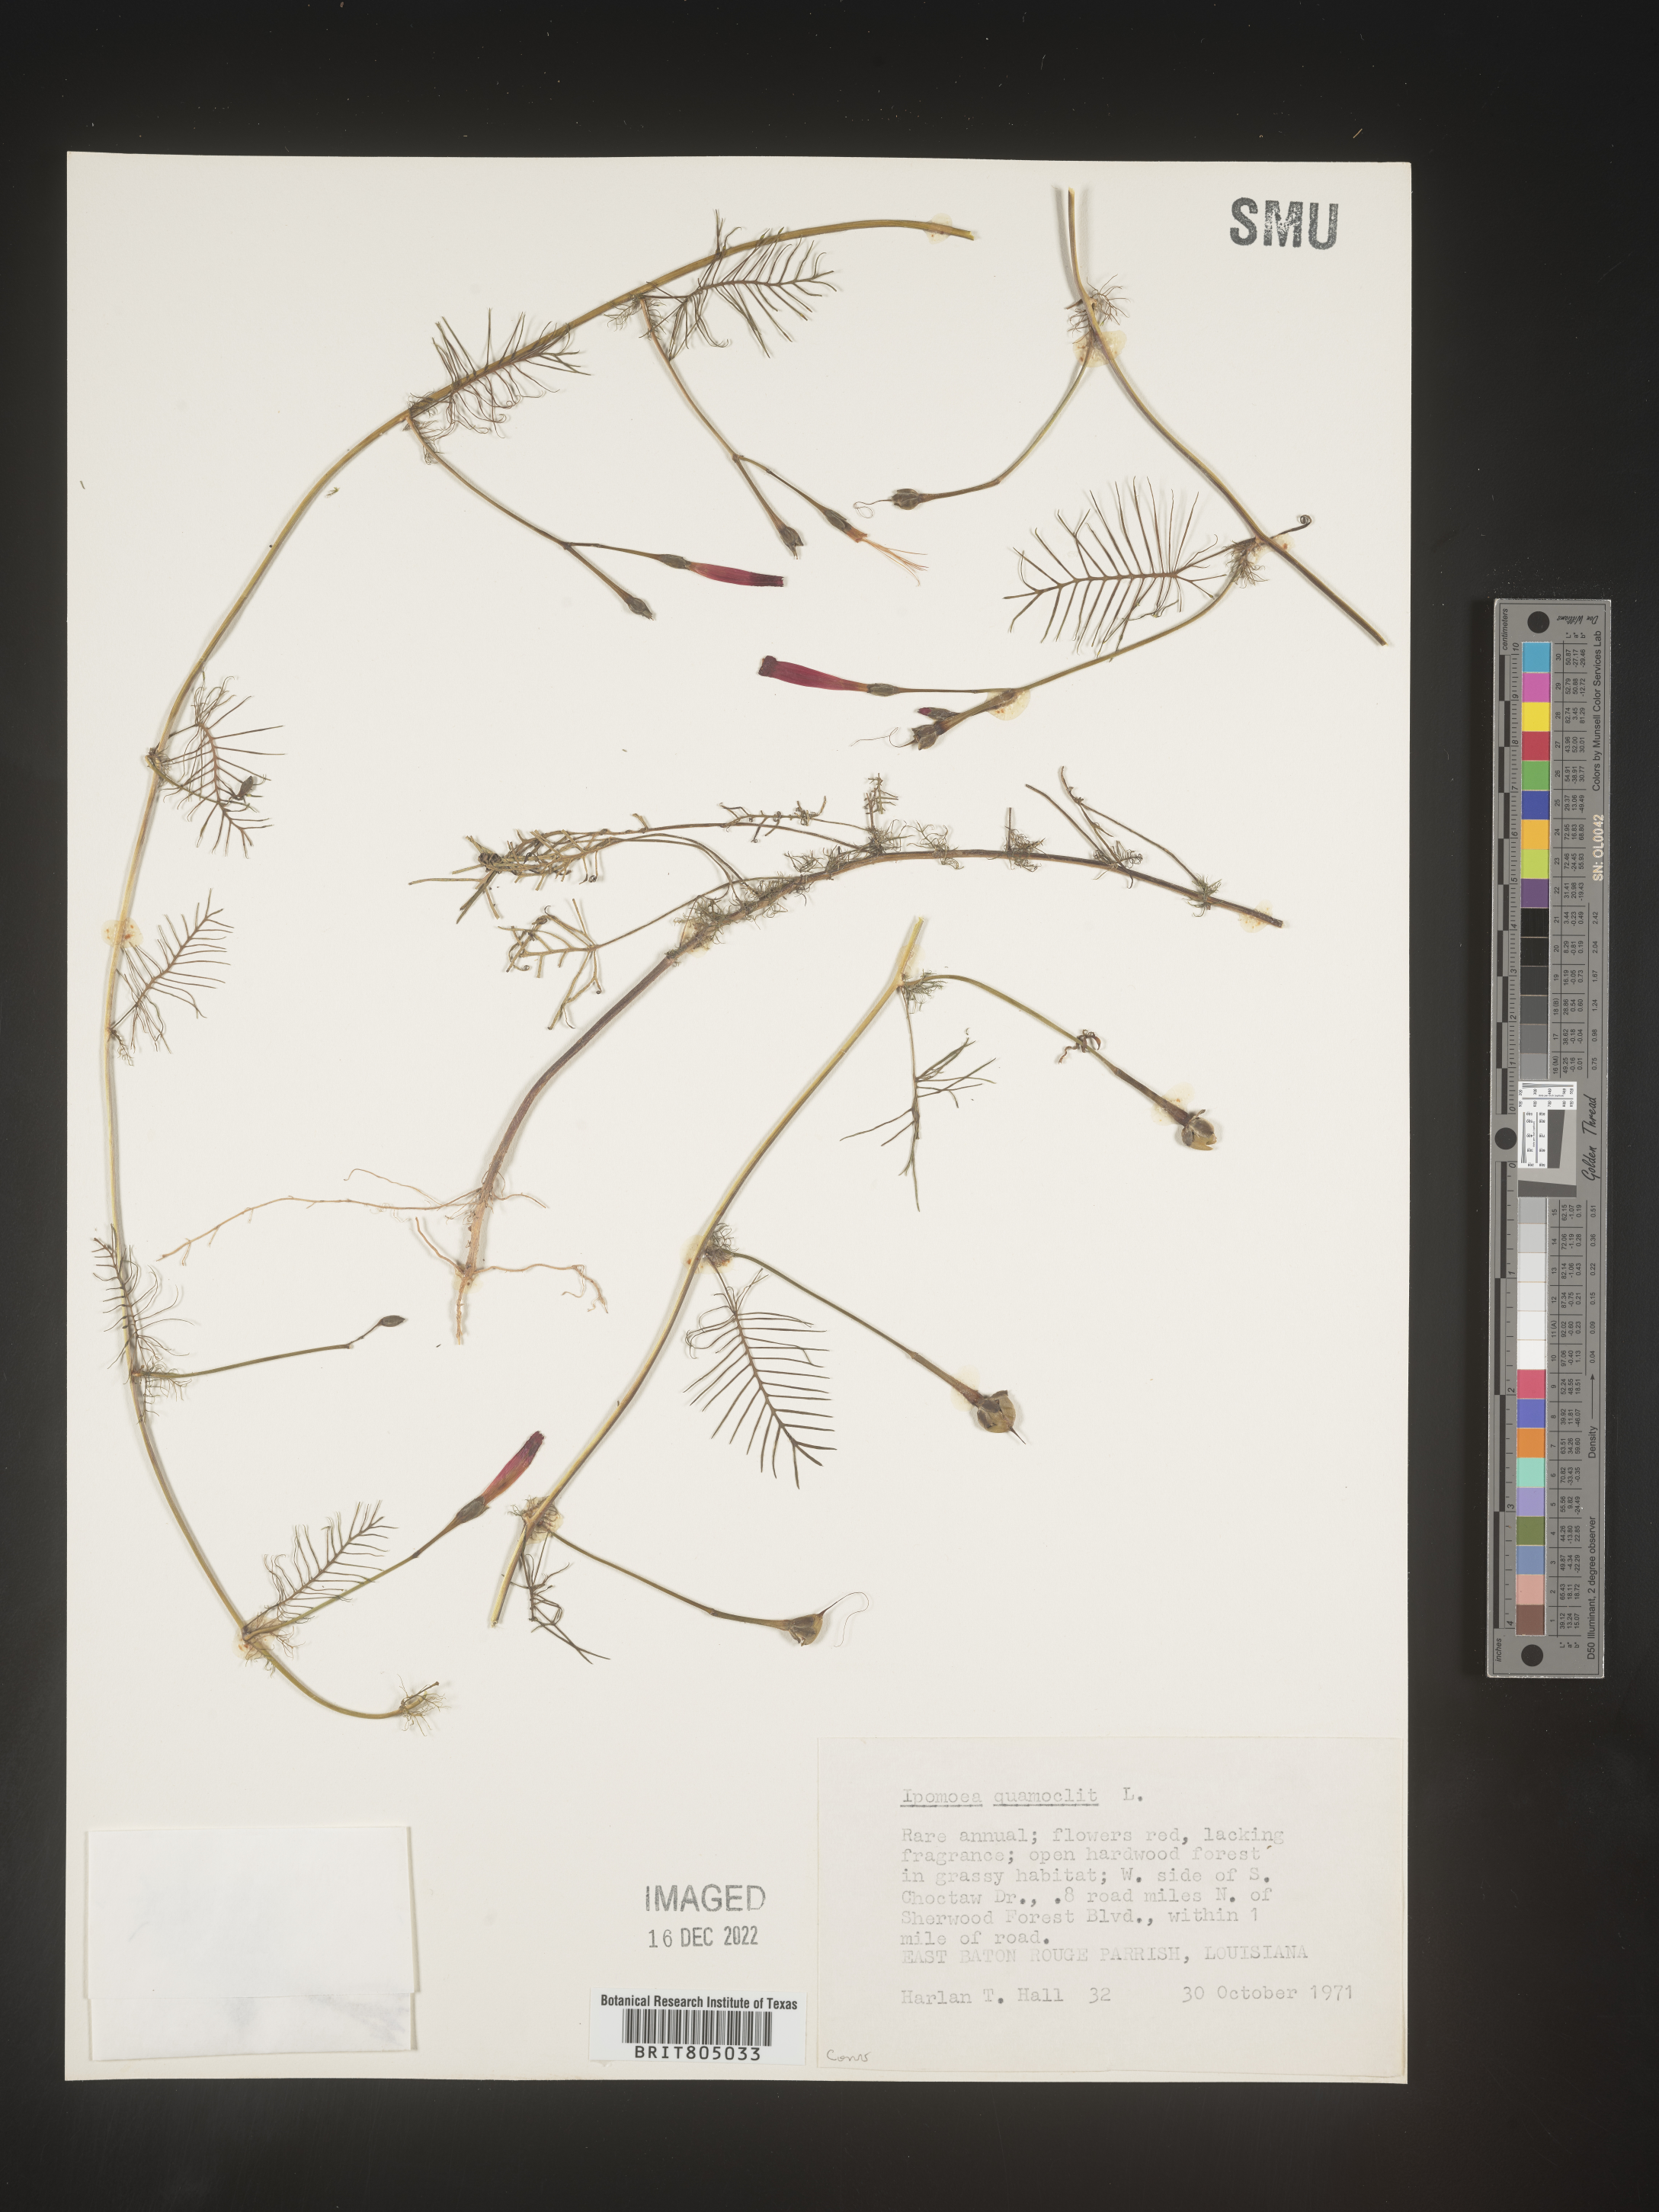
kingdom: Plantae
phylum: Tracheophyta
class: Magnoliopsida
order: Solanales
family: Convolvulaceae
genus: Ipomoea
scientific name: Ipomoea quamoclit
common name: Cypress vine
